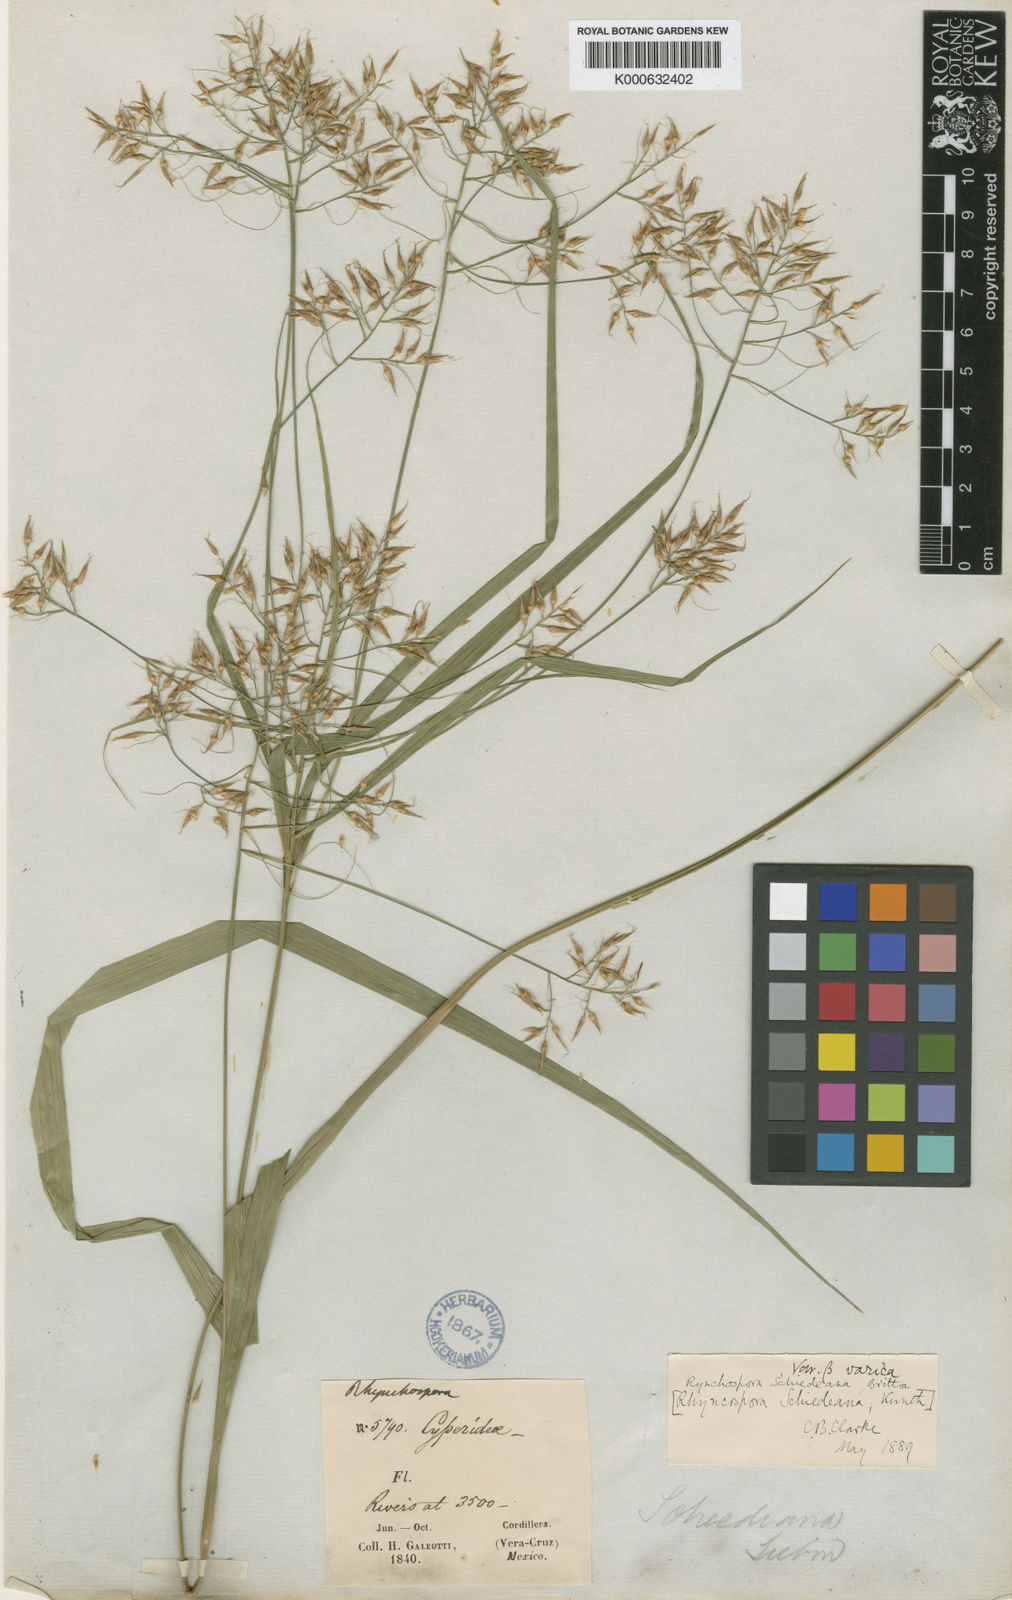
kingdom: Plantae
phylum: Tracheophyta
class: Liliopsida
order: Poales
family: Cyperaceae
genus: Rhynchospora
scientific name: Rhynchospora schiedeana
